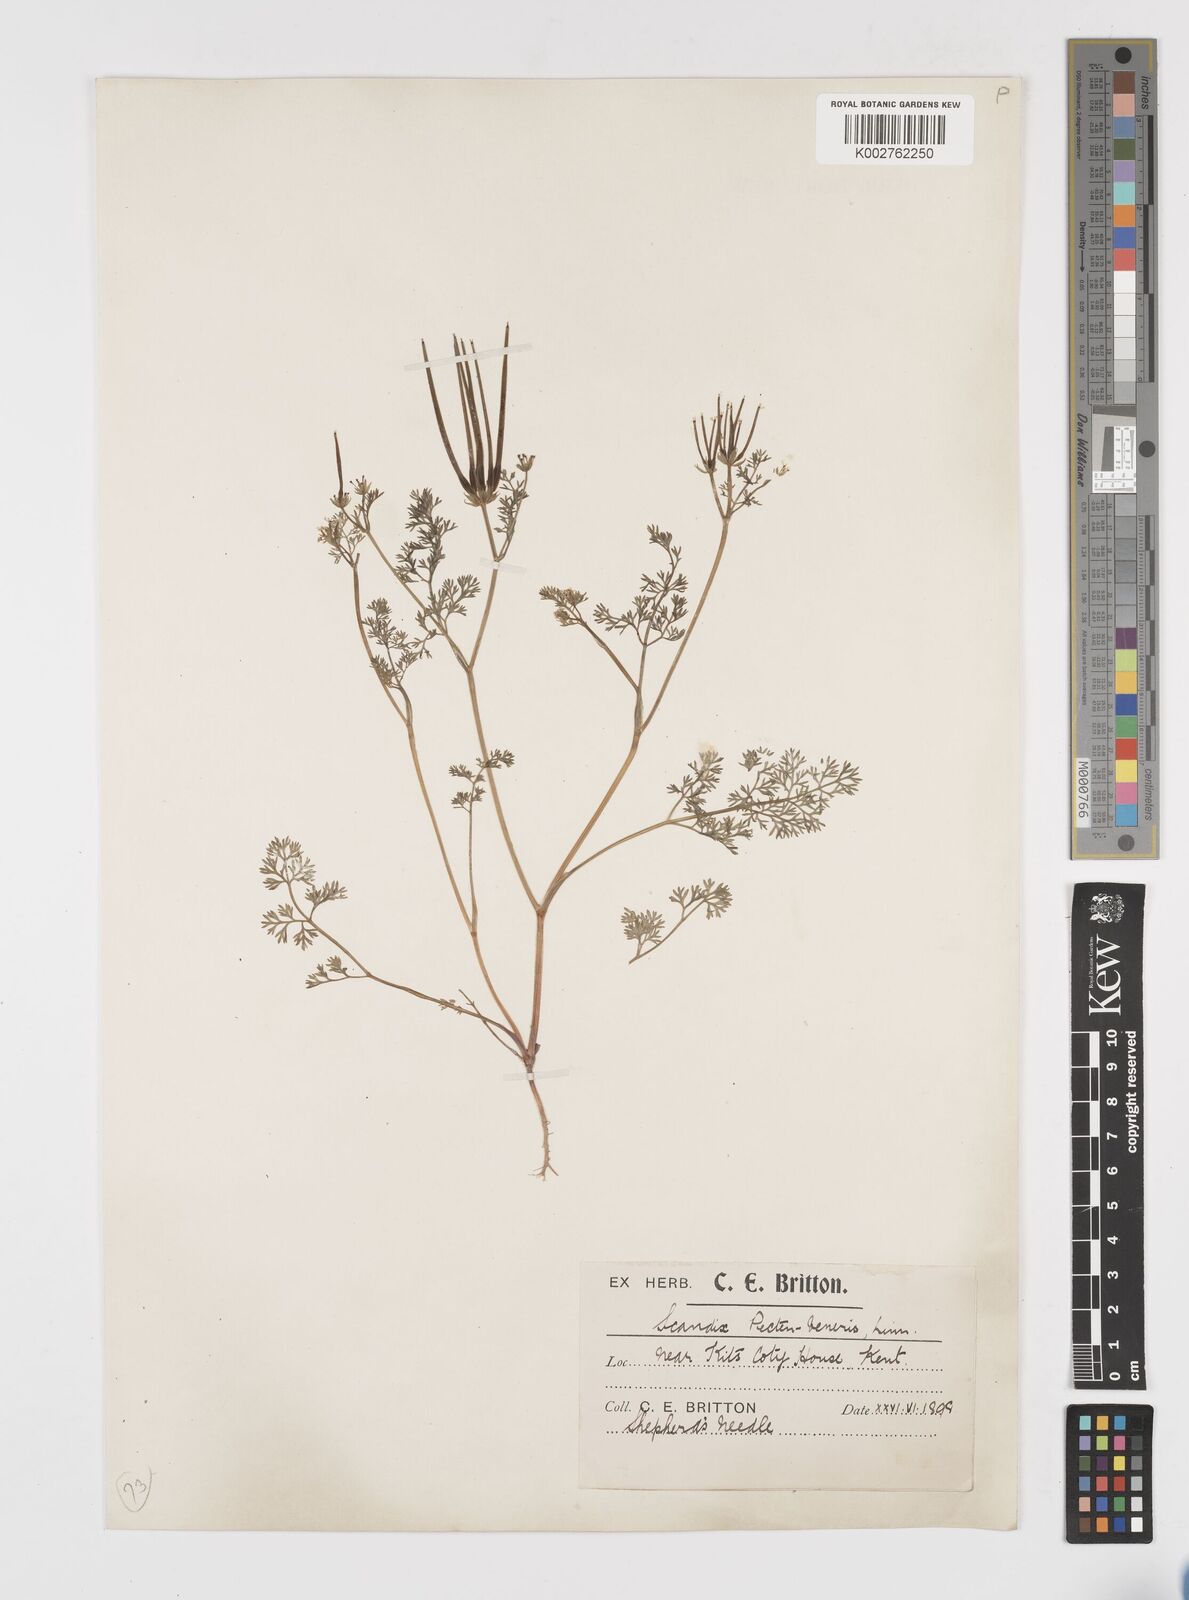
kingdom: Plantae
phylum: Tracheophyta
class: Magnoliopsida
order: Apiales
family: Apiaceae
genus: Scandix
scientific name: Scandix pecten-veneris
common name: Shepherd's-needle
